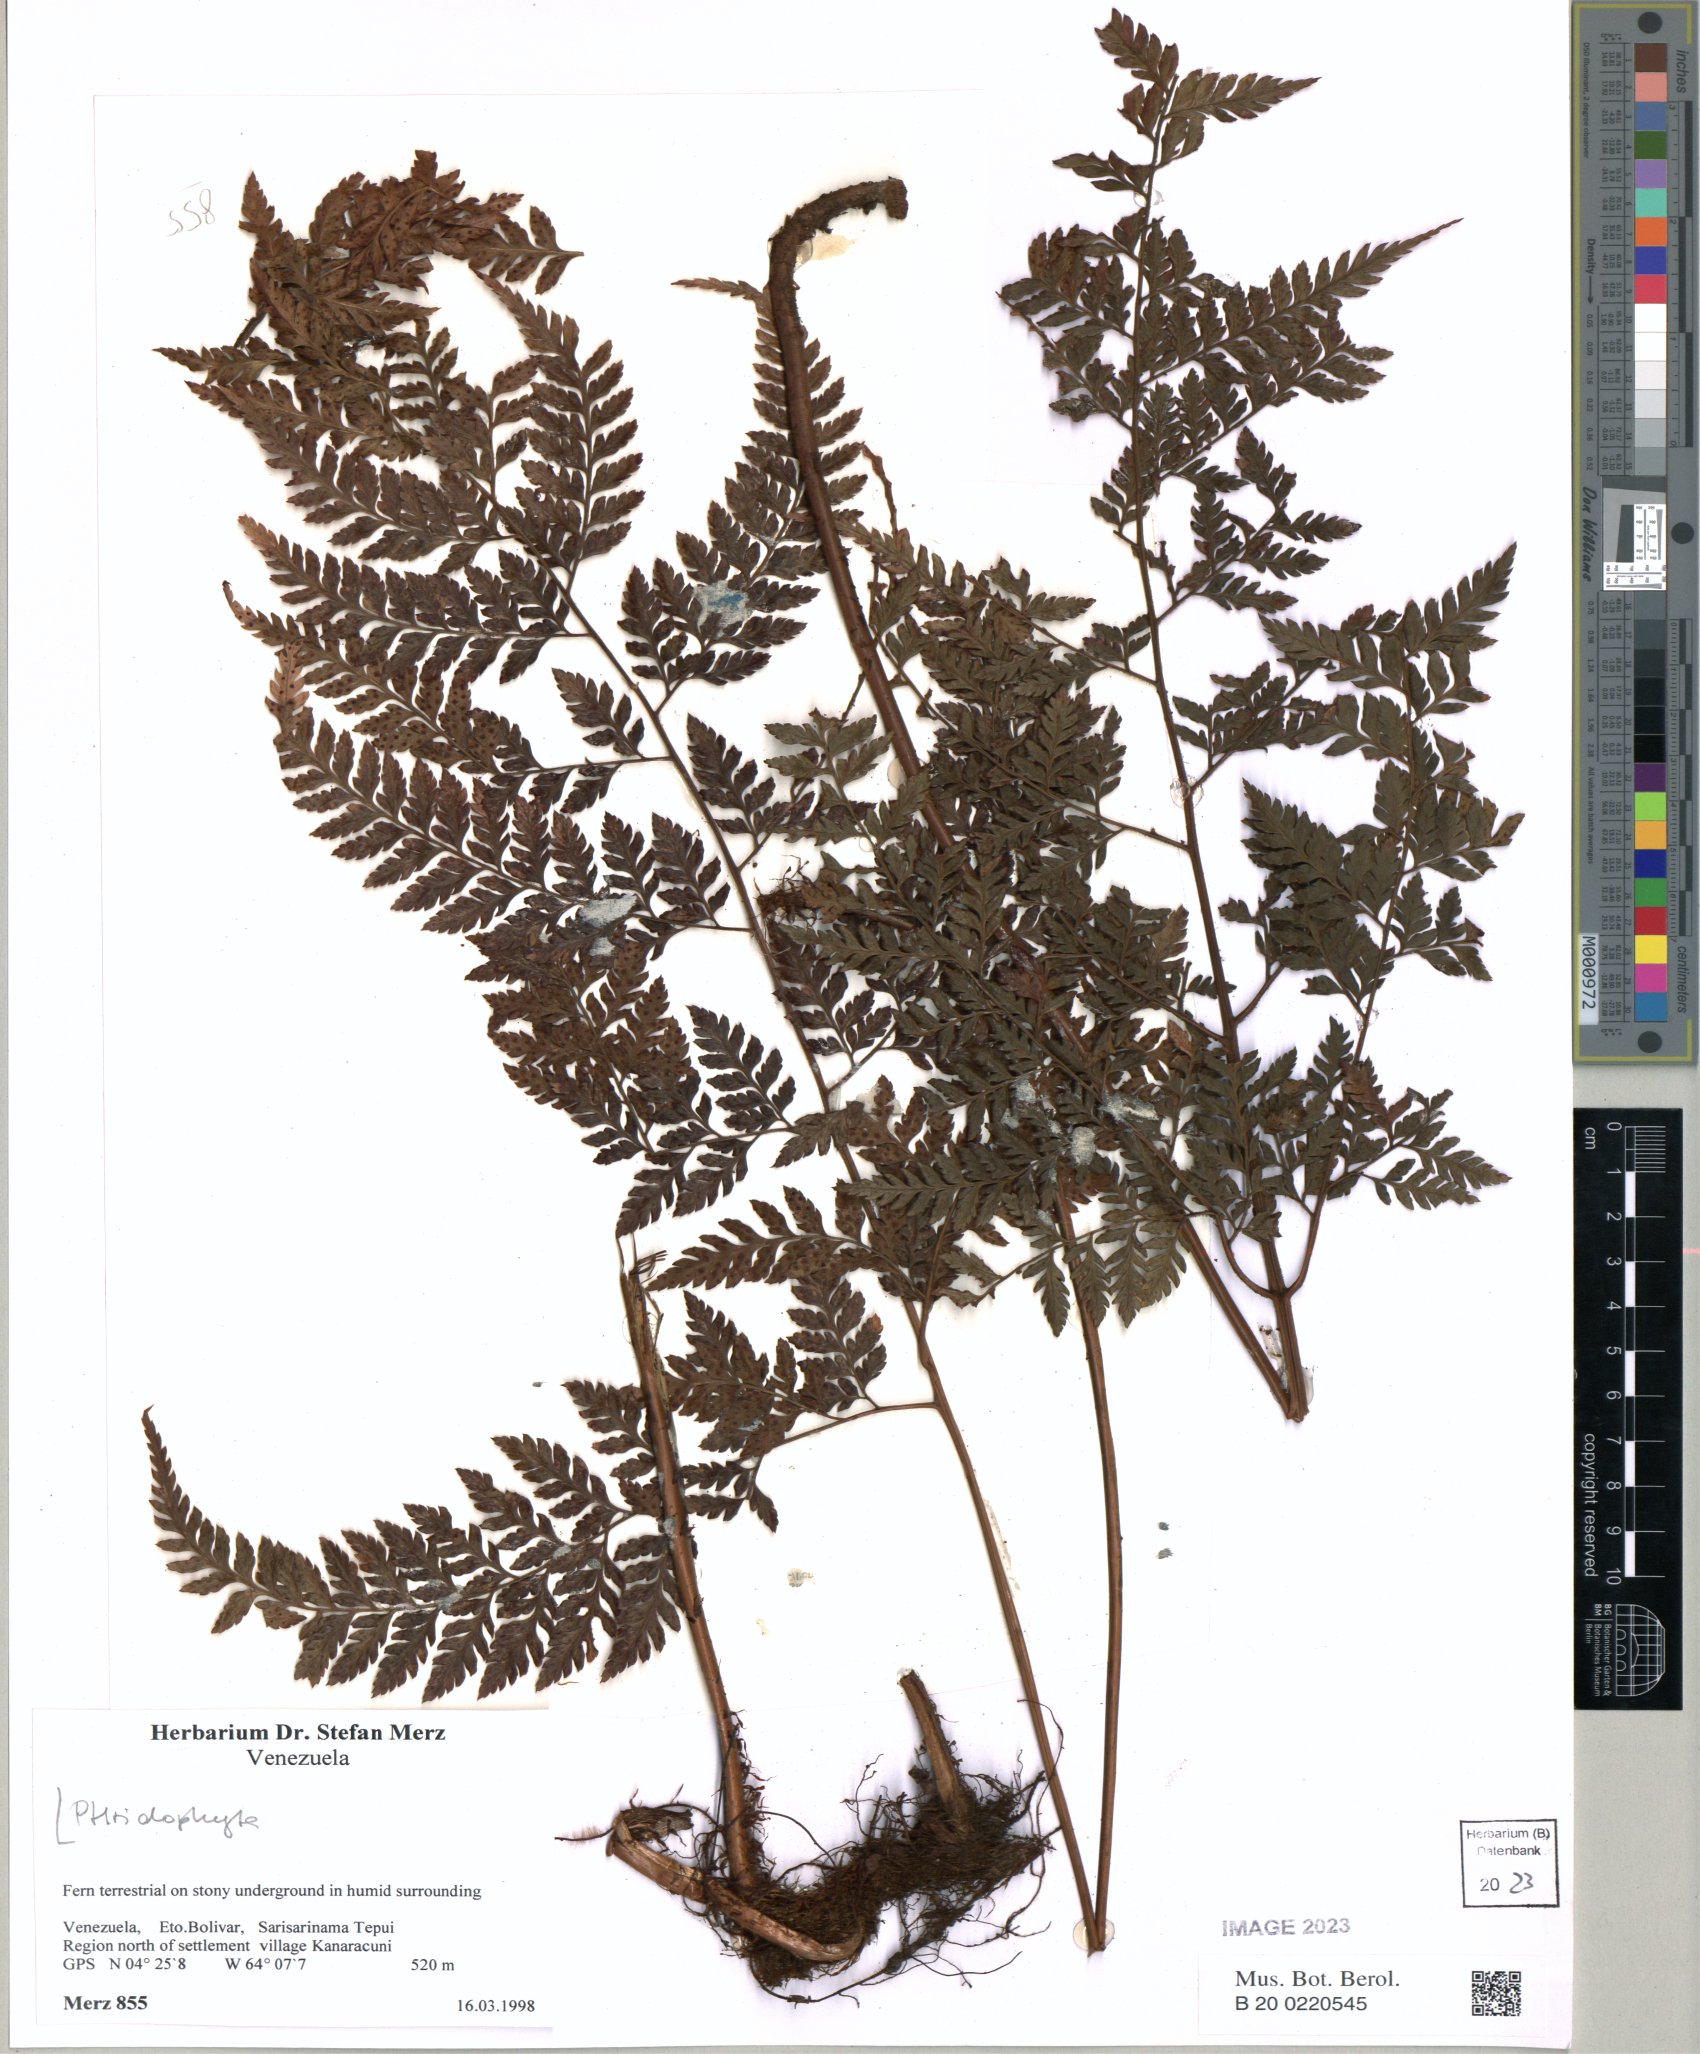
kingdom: Plantae
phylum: Tracheophyta
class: Polypodiopsida
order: Polypodiales
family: Dryopteridaceae
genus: Arachniodes
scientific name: Arachniodes
